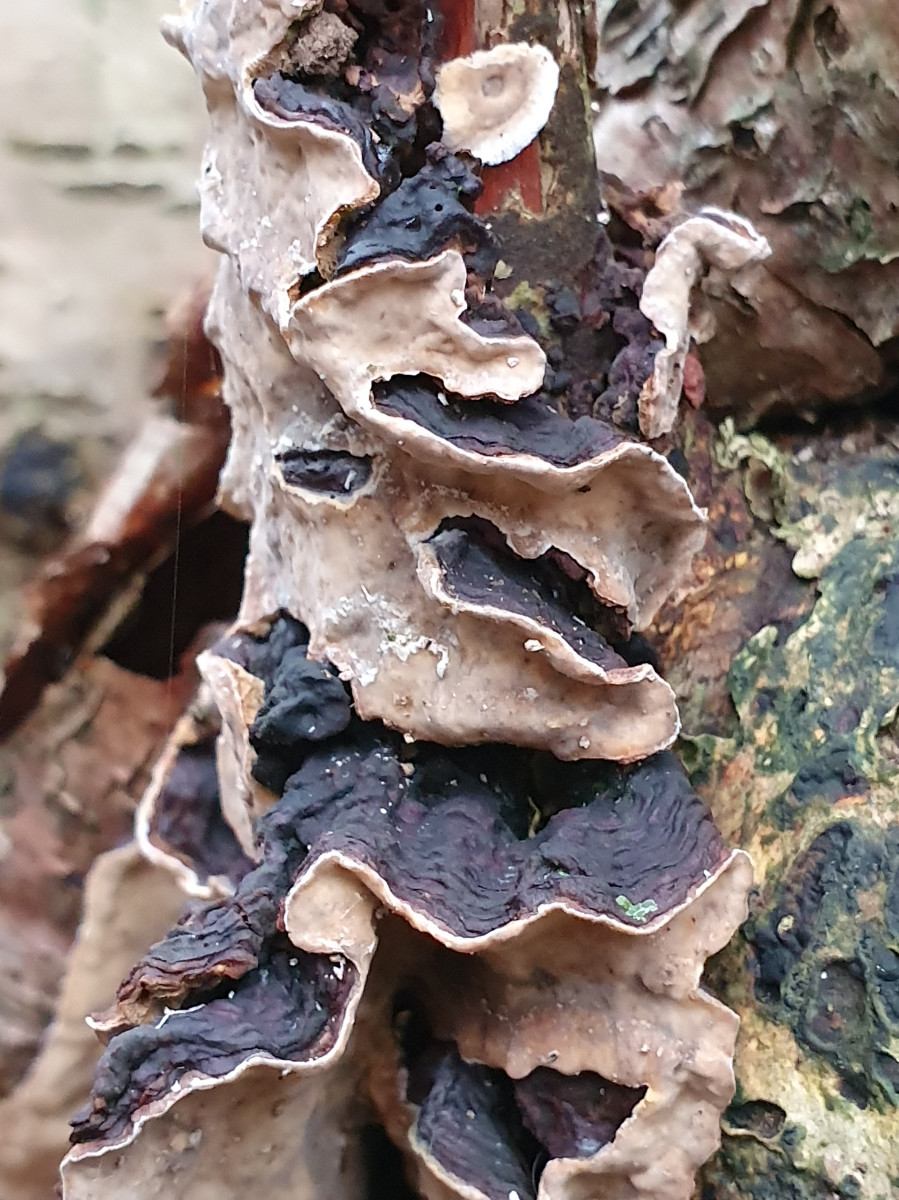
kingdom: Fungi
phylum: Basidiomycota
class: Agaricomycetes
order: Russulales
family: Stereaceae
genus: Stereum
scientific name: Stereum rugosum
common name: rynket lædersvamp
